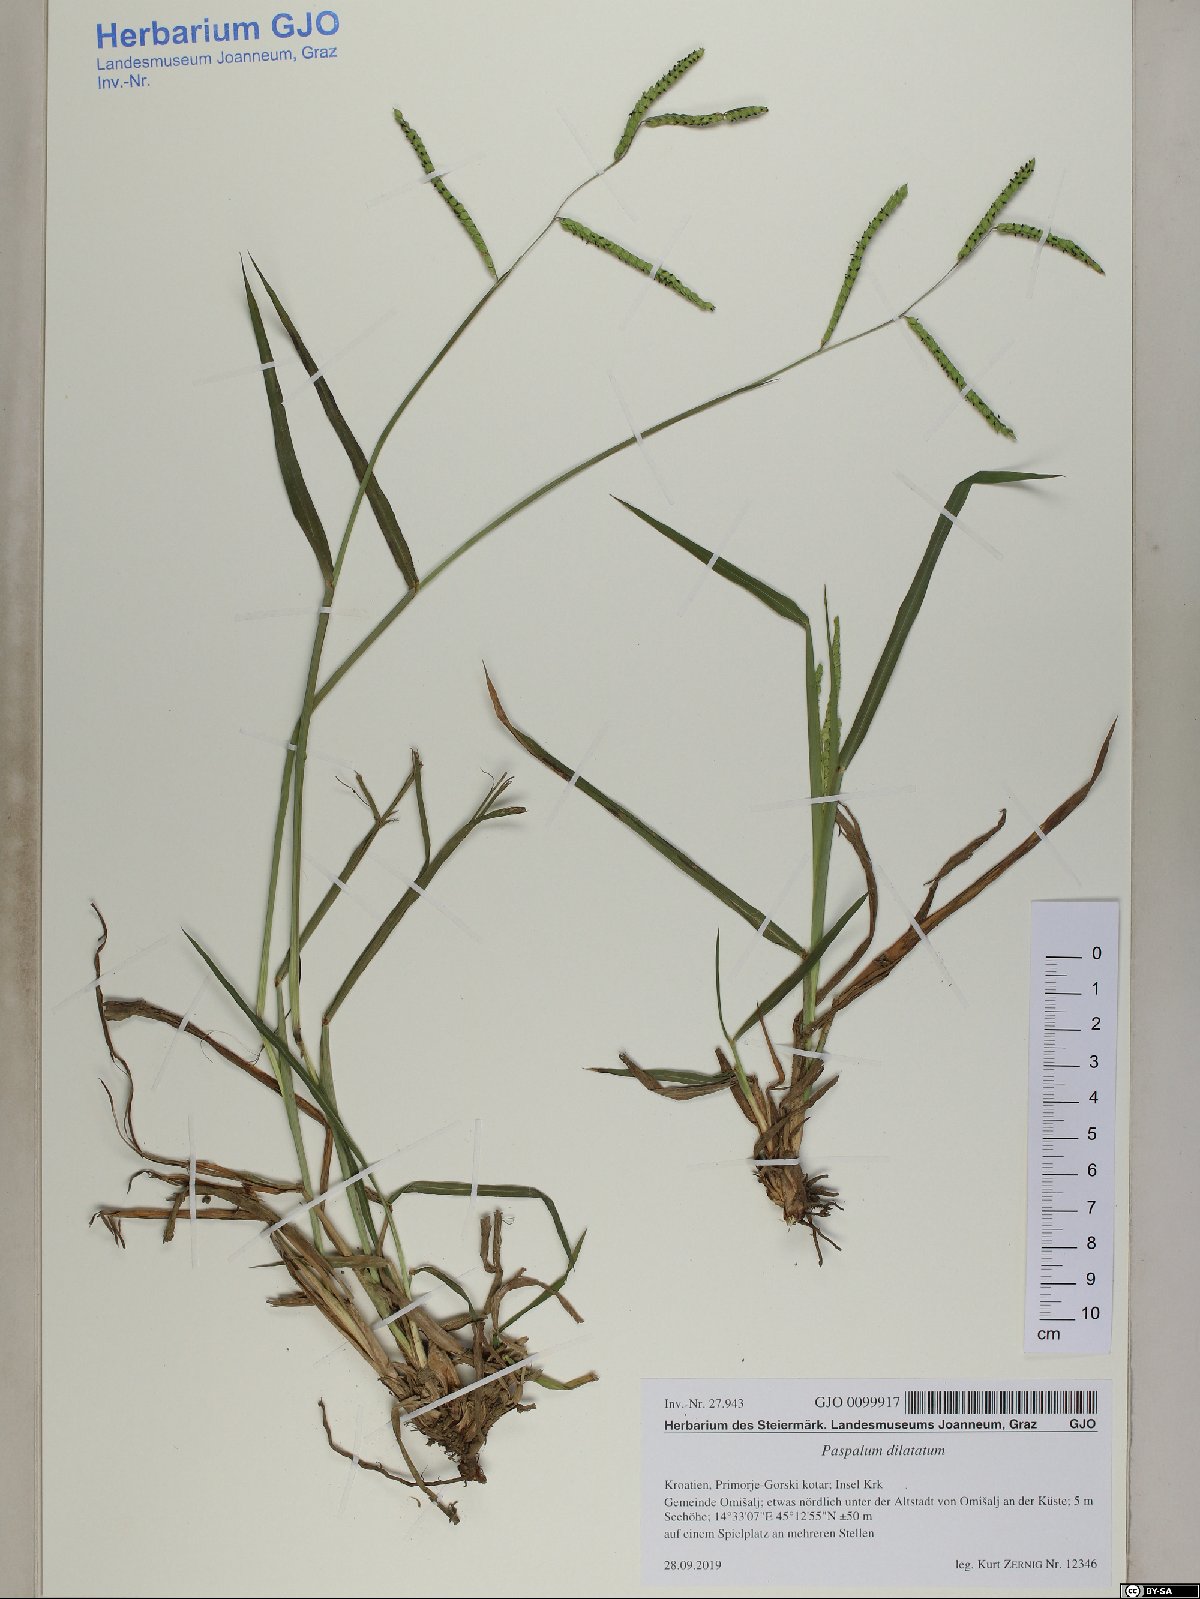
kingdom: Plantae
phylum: Tracheophyta
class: Liliopsida
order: Poales
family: Poaceae
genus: Paspalum
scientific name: Paspalum dilatatum
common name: Dallisgrass
